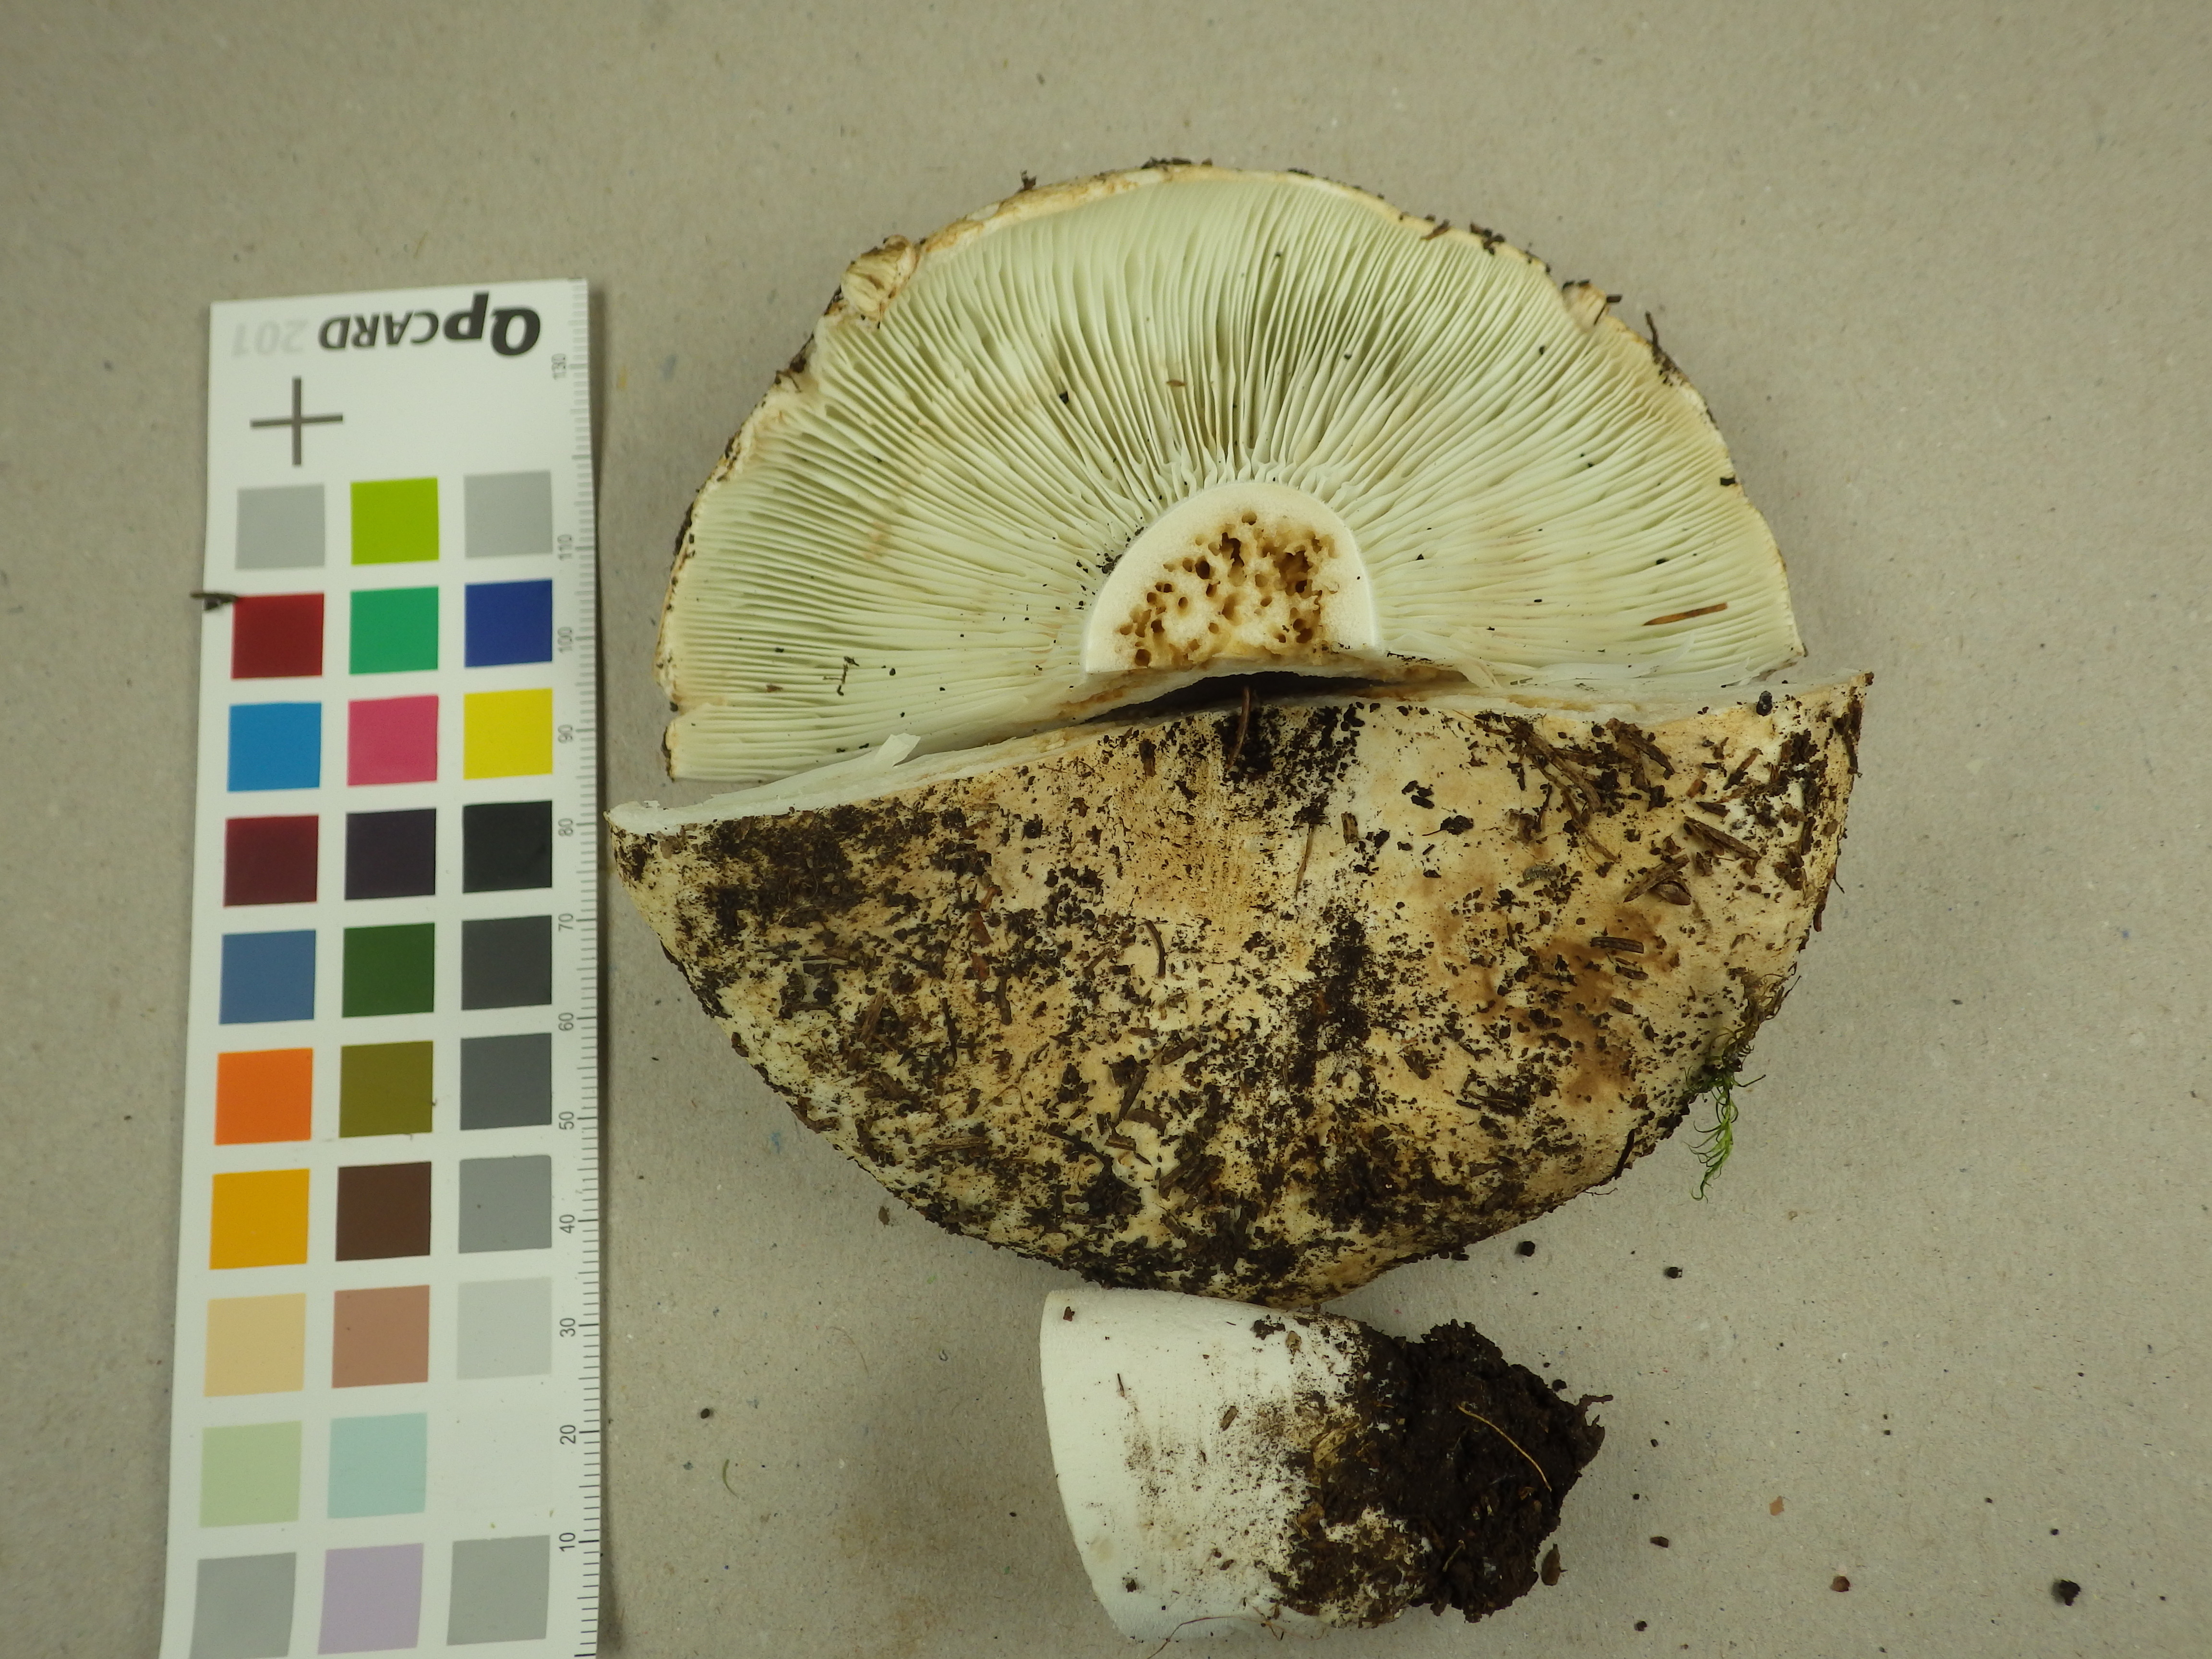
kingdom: Fungi
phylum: Basidiomycota
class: Agaricomycetes
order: Russulales
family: Russulaceae
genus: Russula
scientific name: Russula chloroides
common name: Blue band brittlegill
